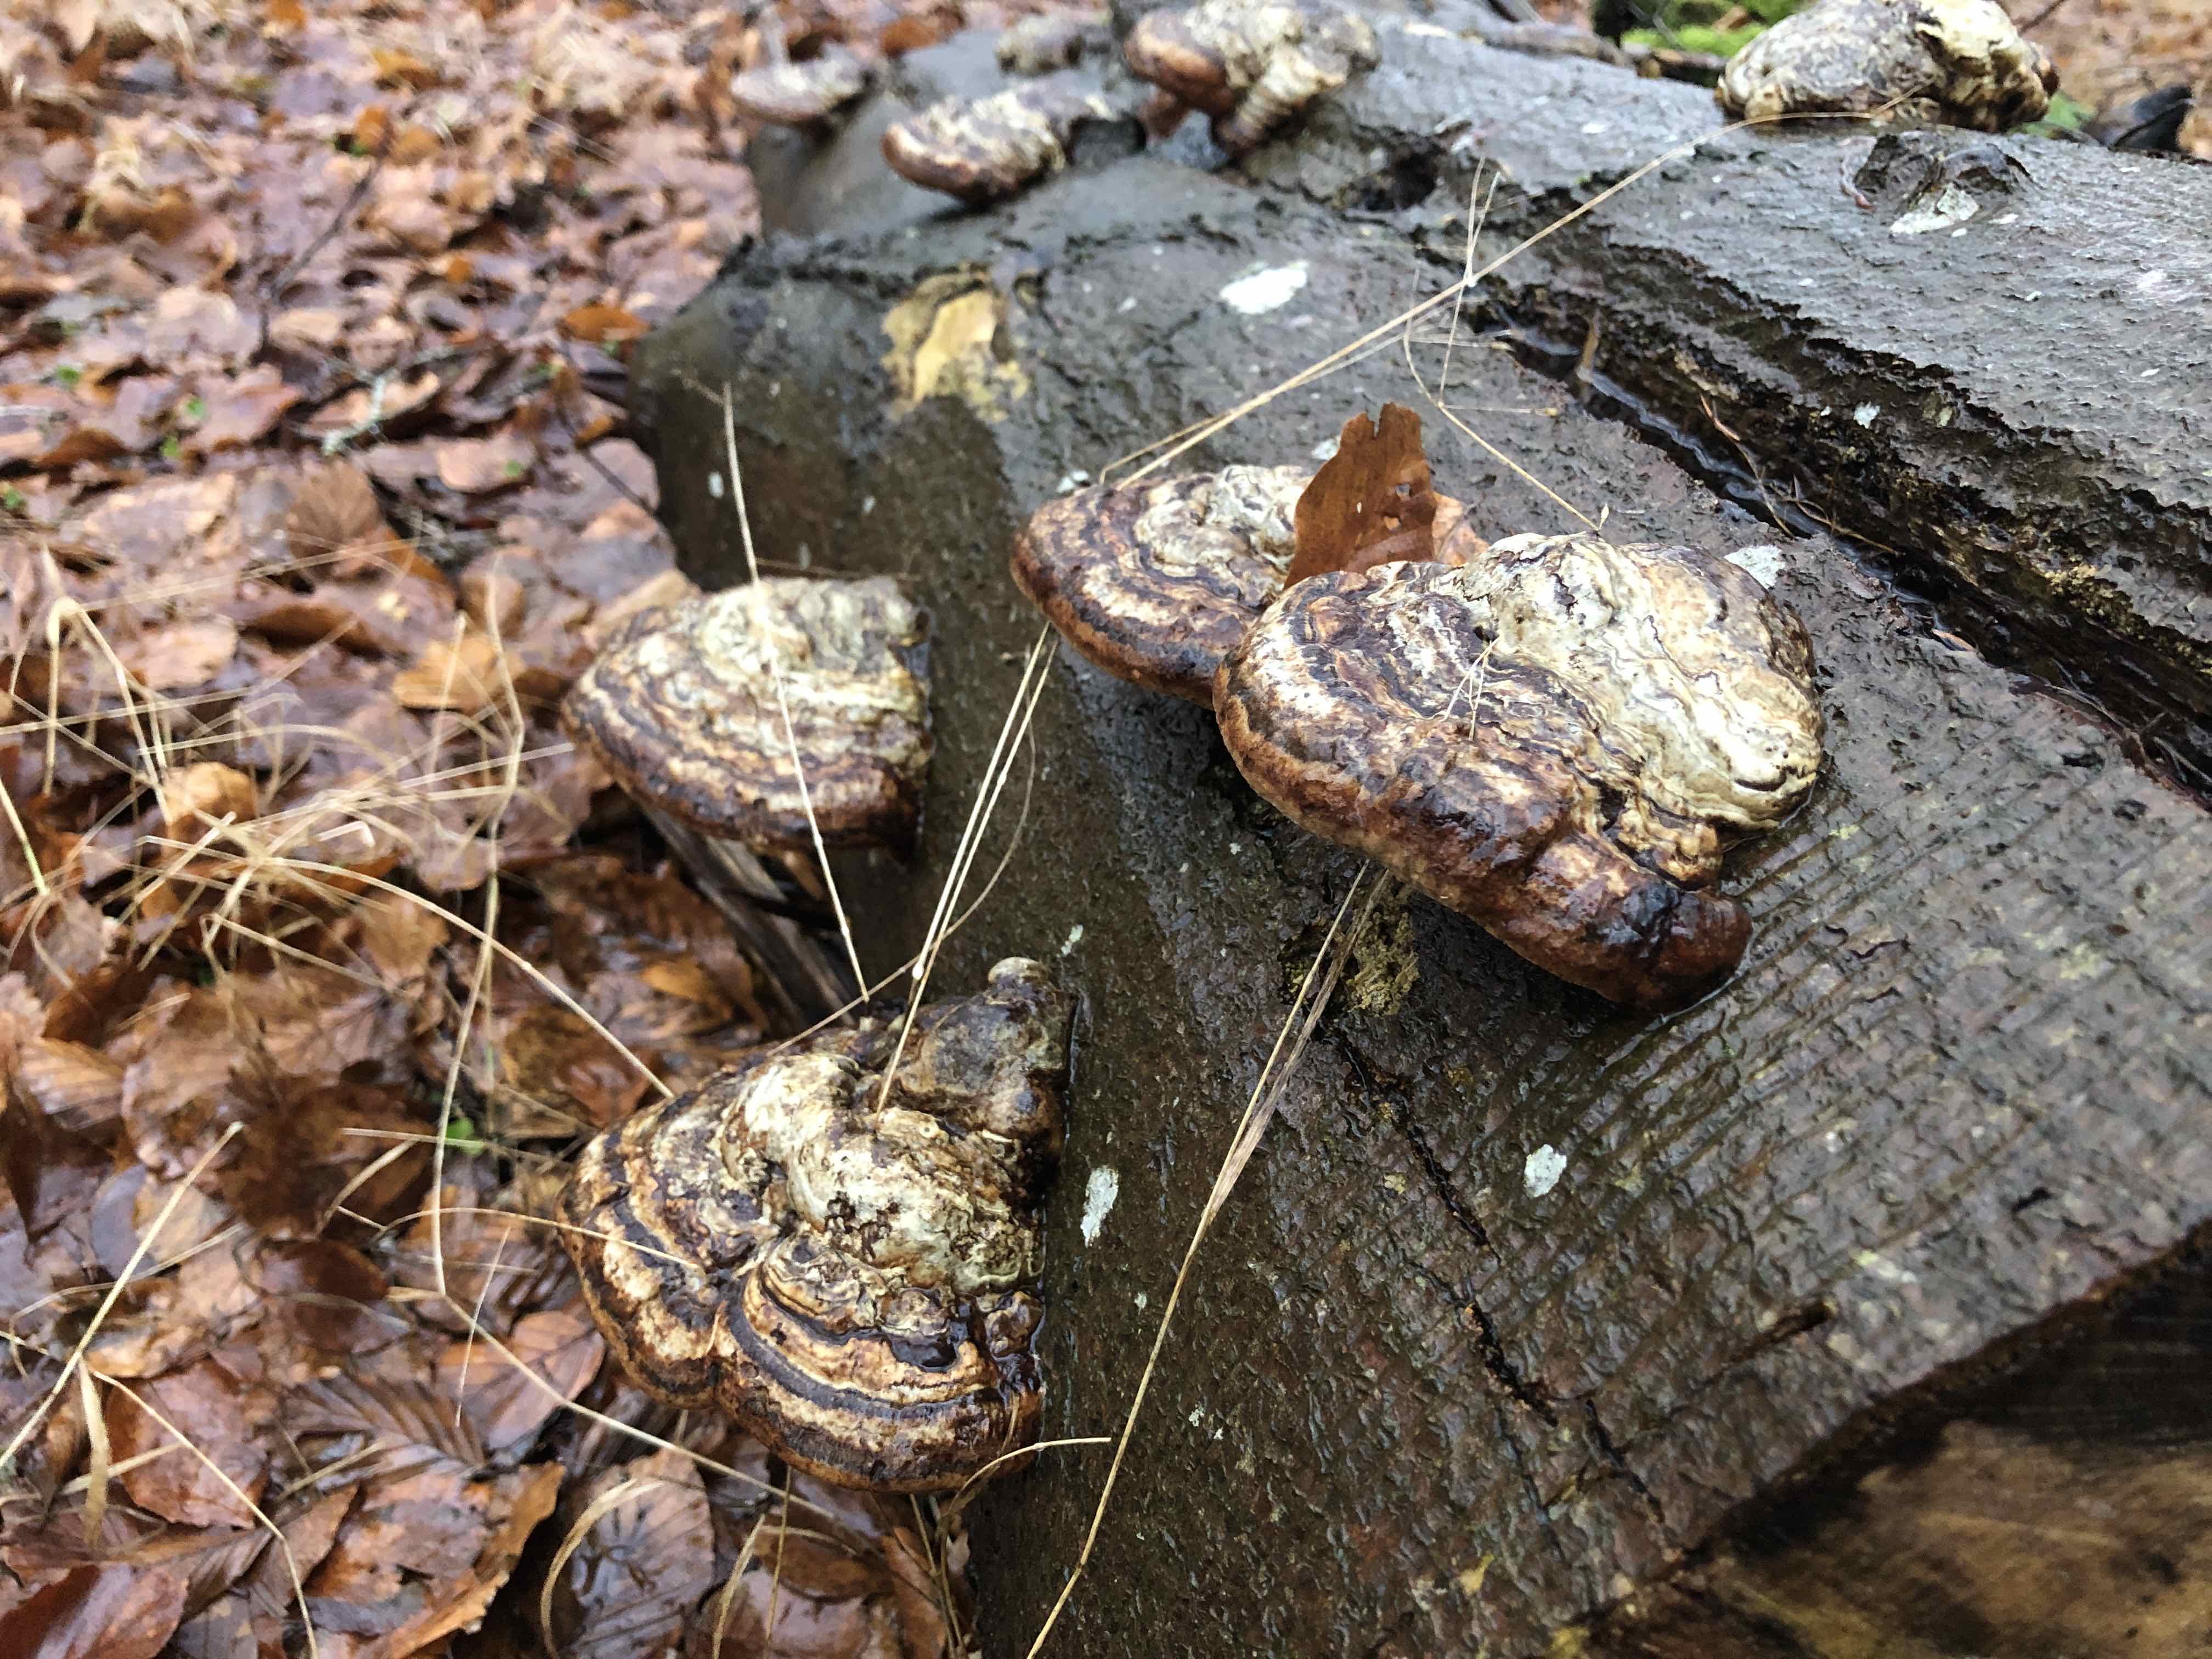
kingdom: Fungi
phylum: Basidiomycota
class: Agaricomycetes
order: Polyporales
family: Polyporaceae
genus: Fomes
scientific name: Fomes fomentarius
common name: tøndersvamp
